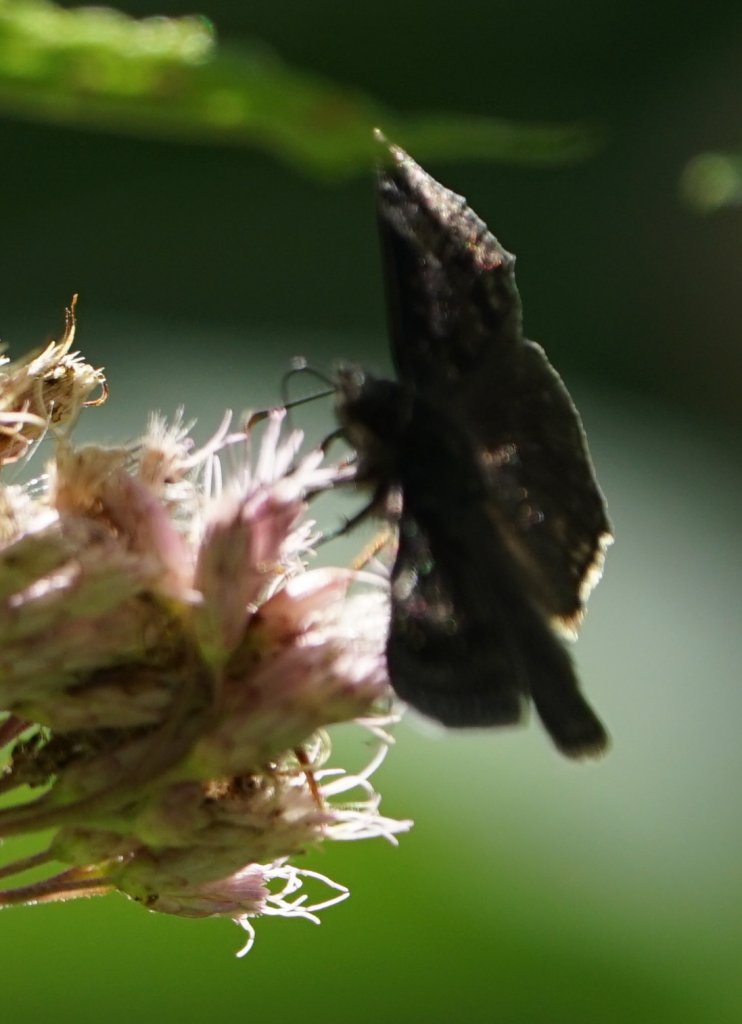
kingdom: Animalia
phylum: Arthropoda
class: Insecta
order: Lepidoptera
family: Hesperiidae
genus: Gesta
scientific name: Gesta
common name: Wild Indigo Duskywing
